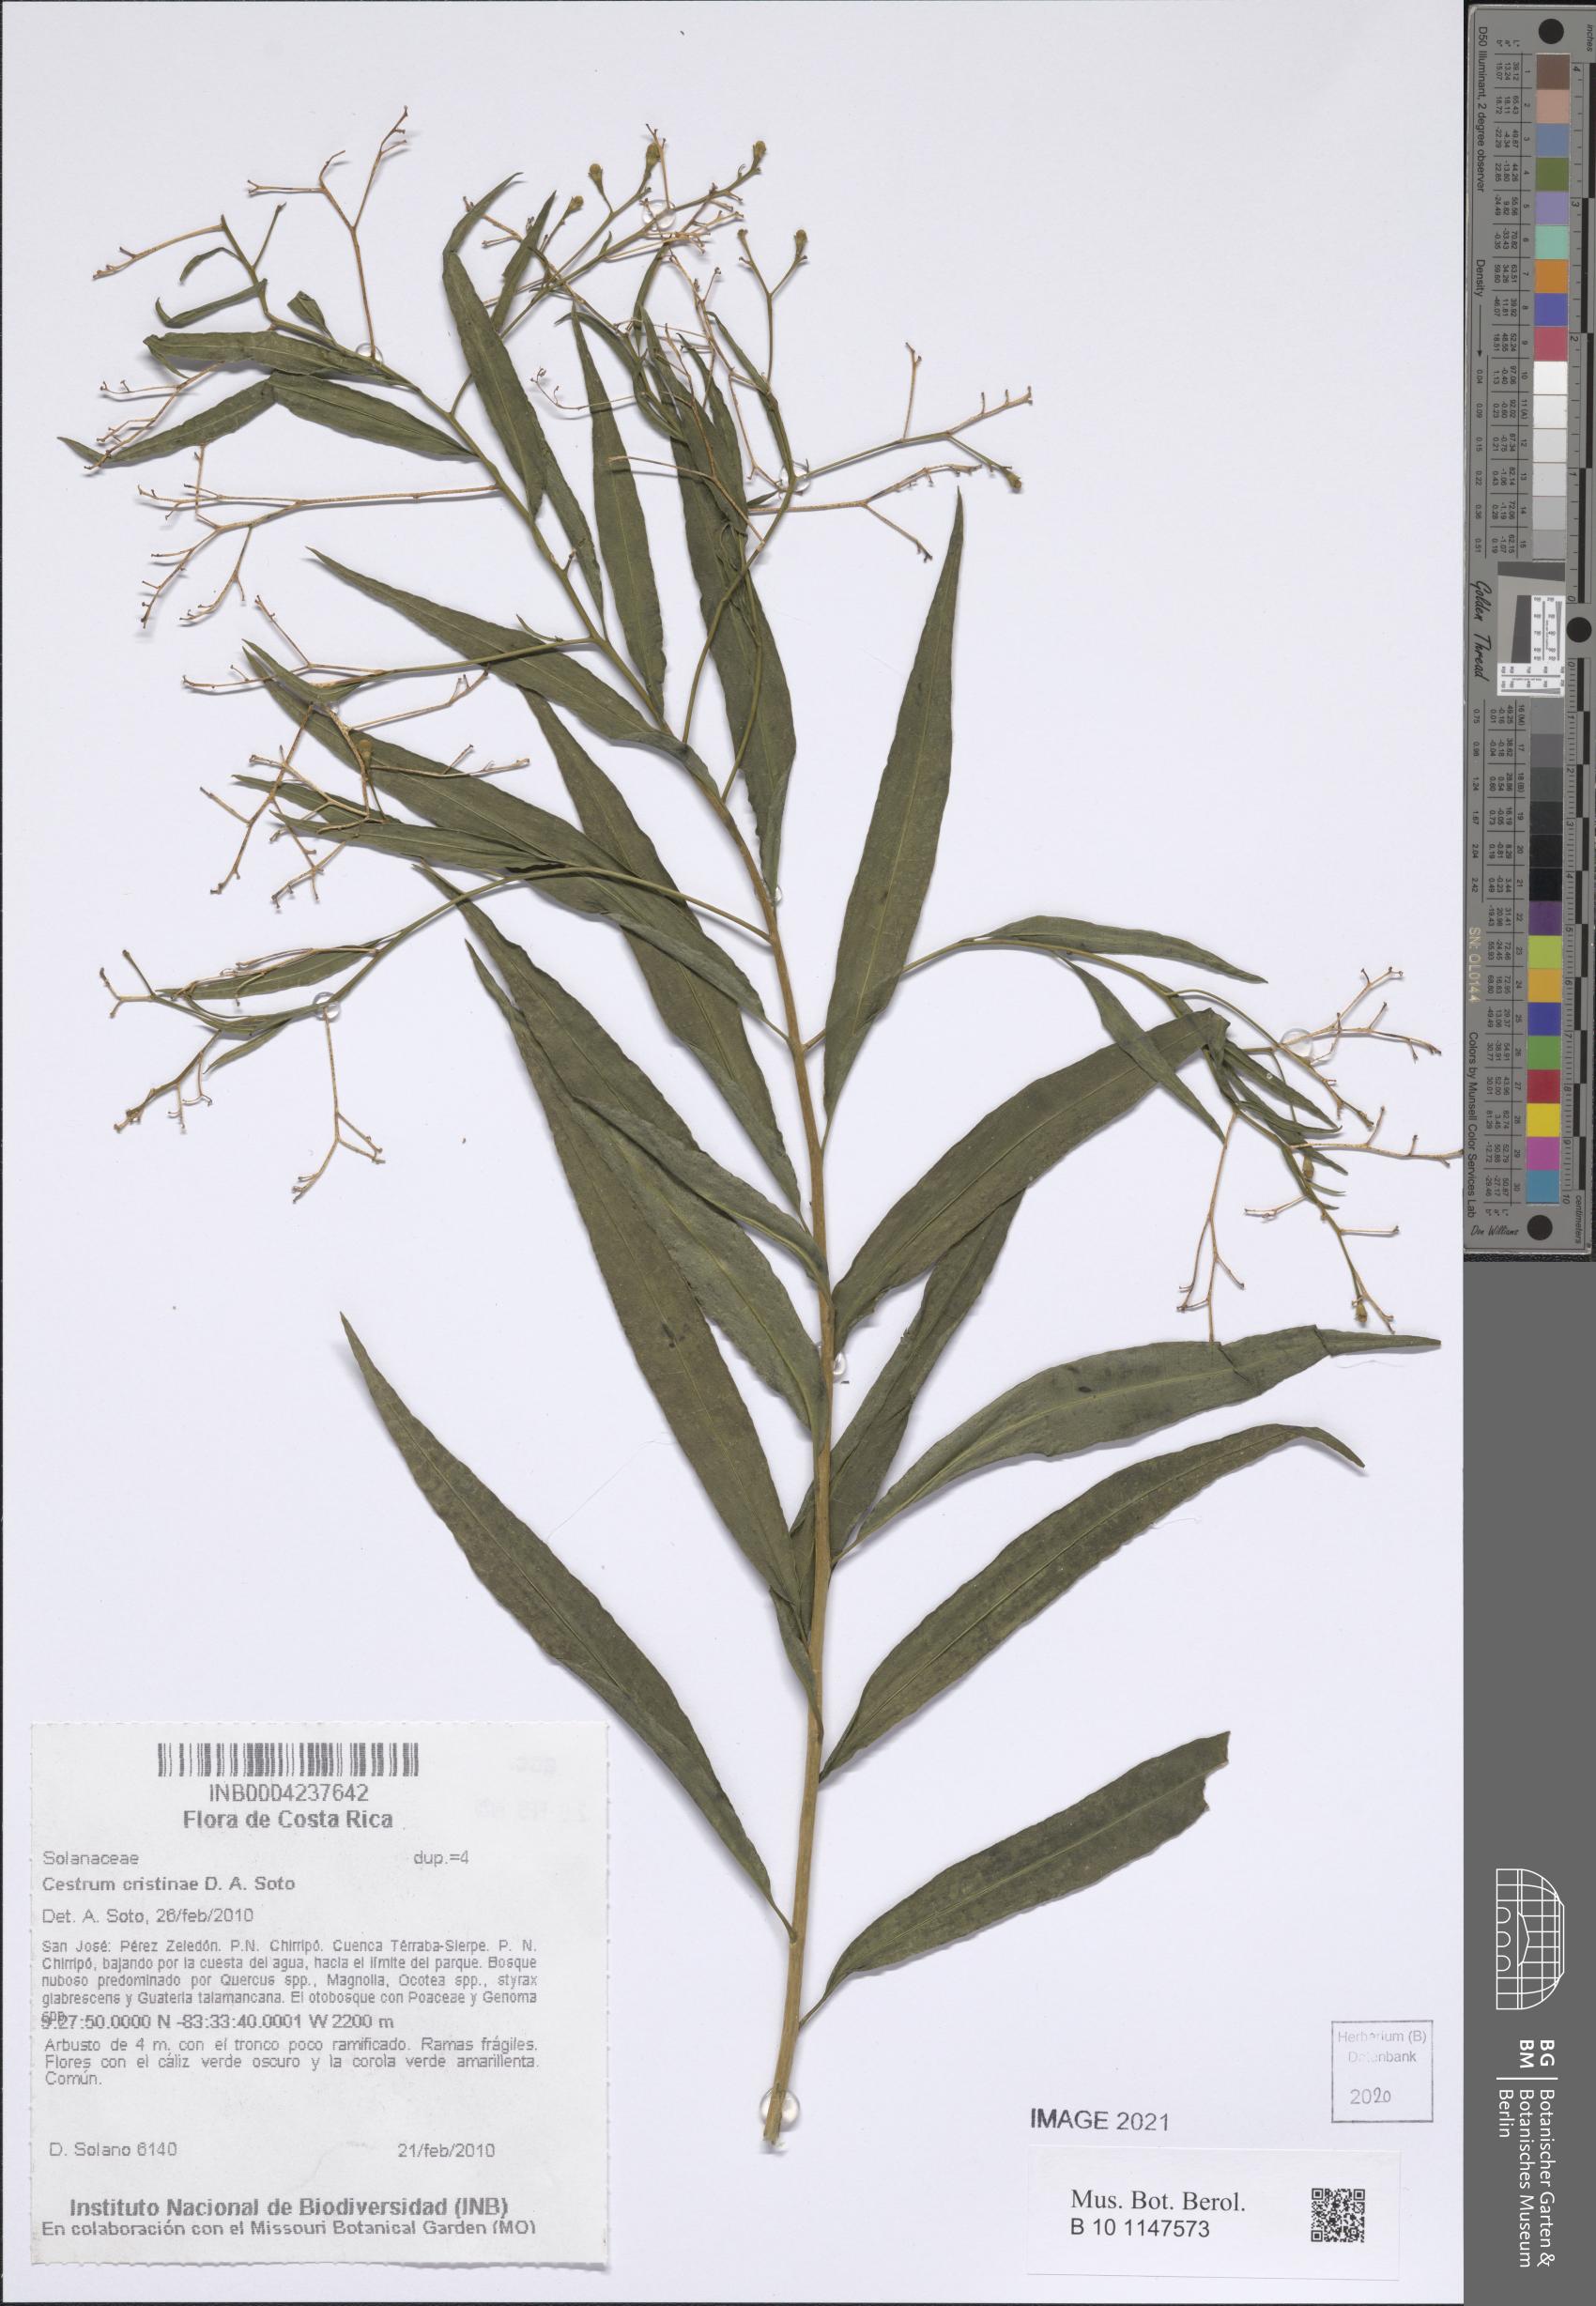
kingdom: Plantae
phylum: Tracheophyta
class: Magnoliopsida
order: Solanales
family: Solanaceae
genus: Cestrum
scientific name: Cestrum cristinae
